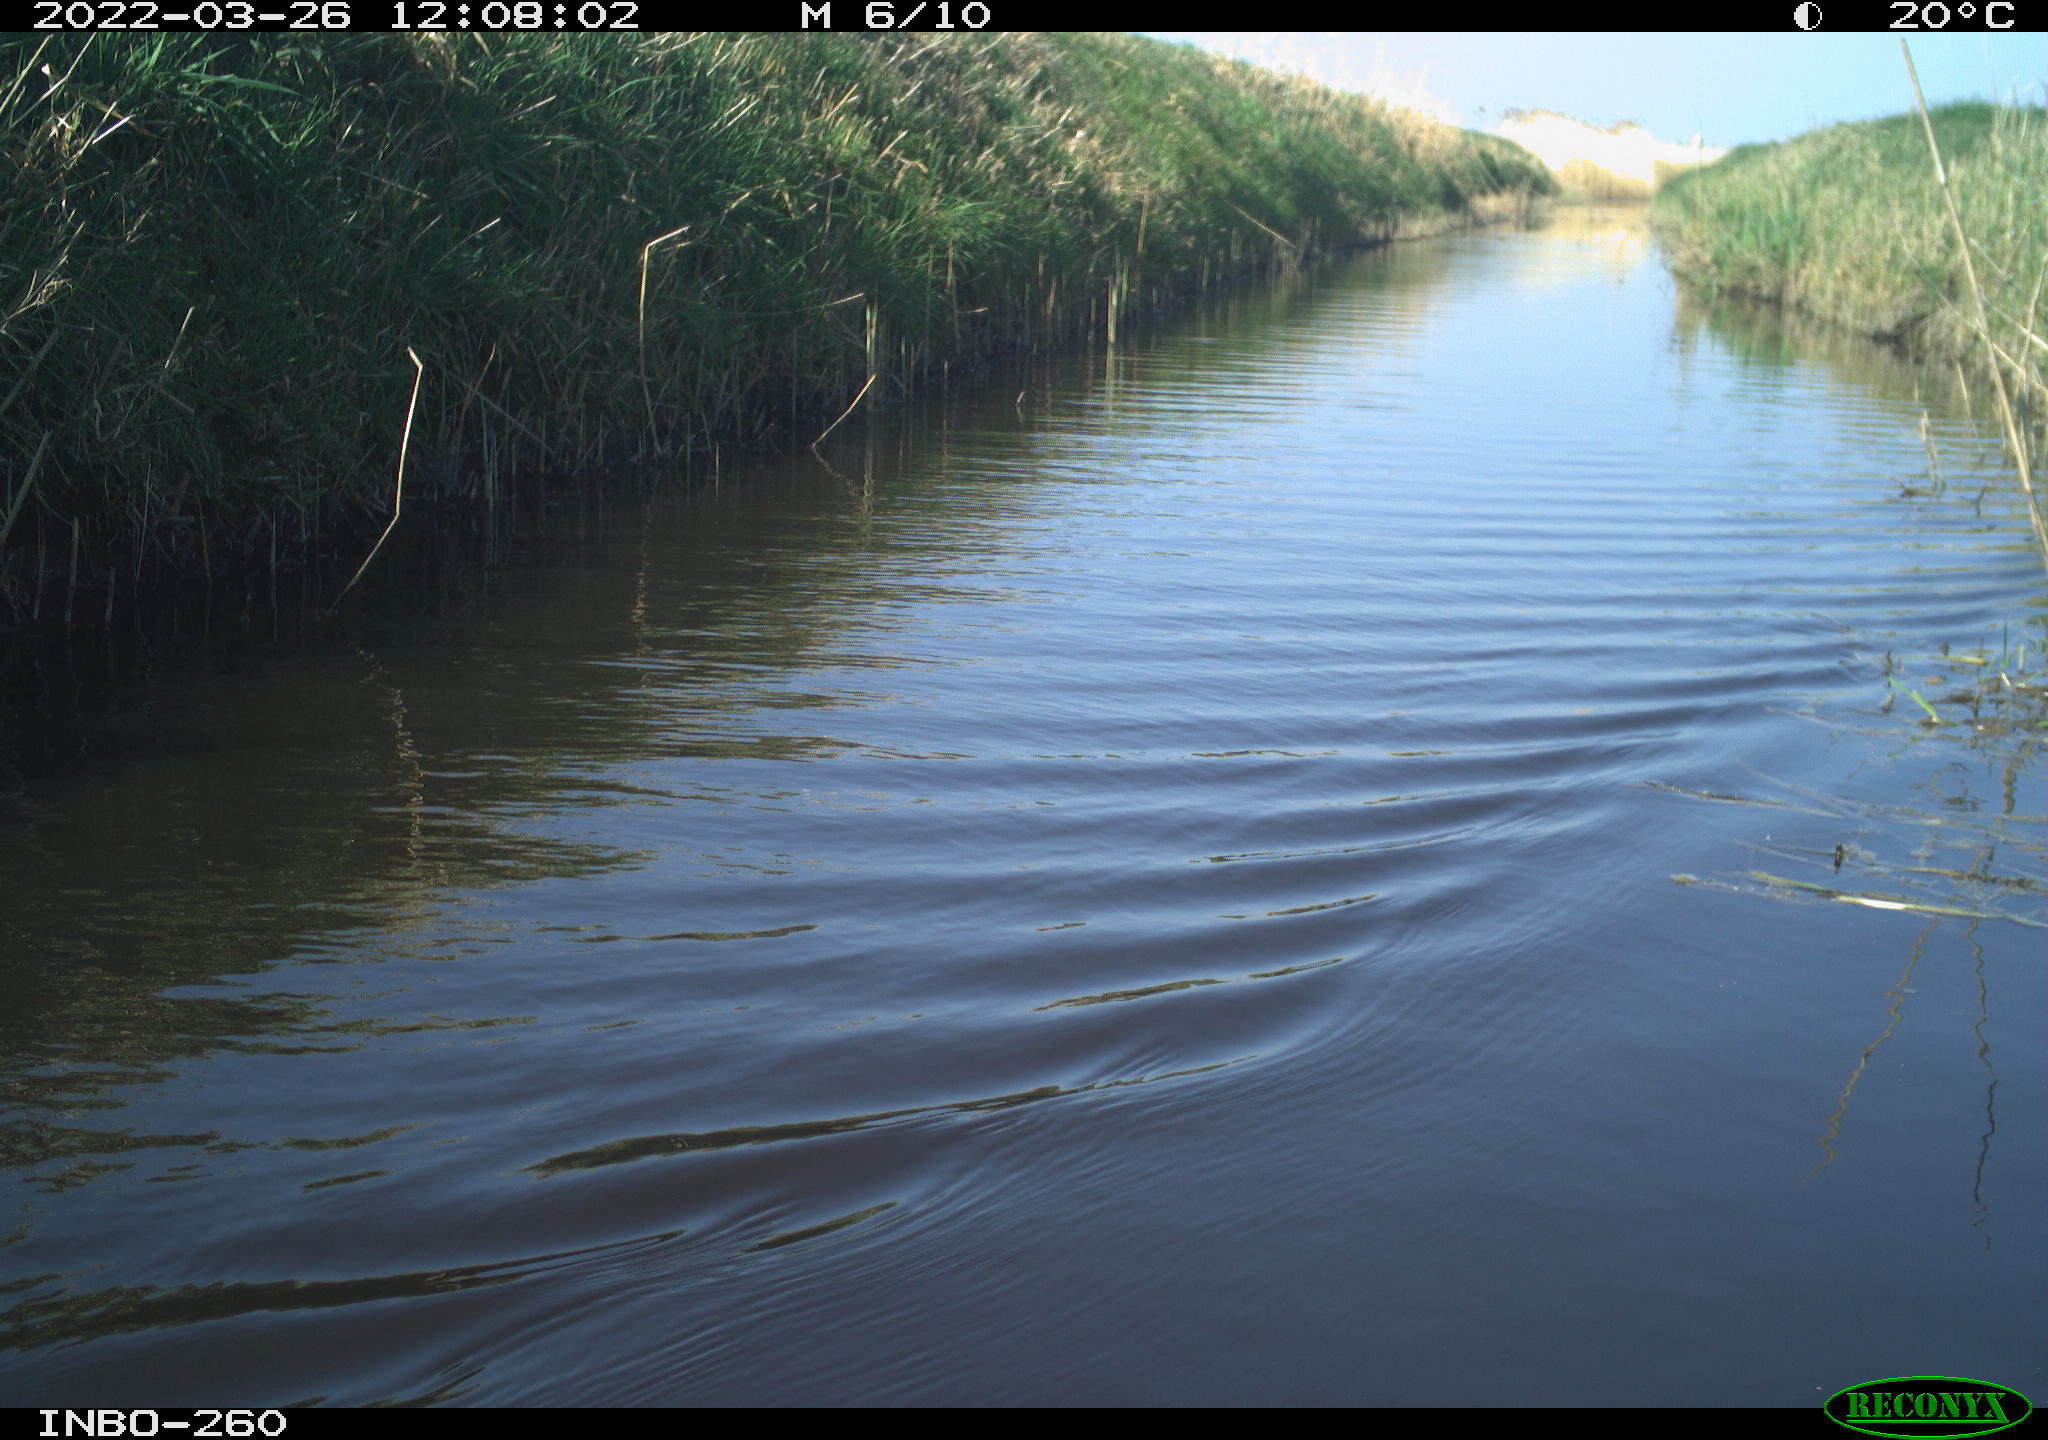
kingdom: Animalia
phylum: Chordata
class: Aves
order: Gruiformes
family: Rallidae
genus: Fulica
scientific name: Fulica atra
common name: Eurasian coot
